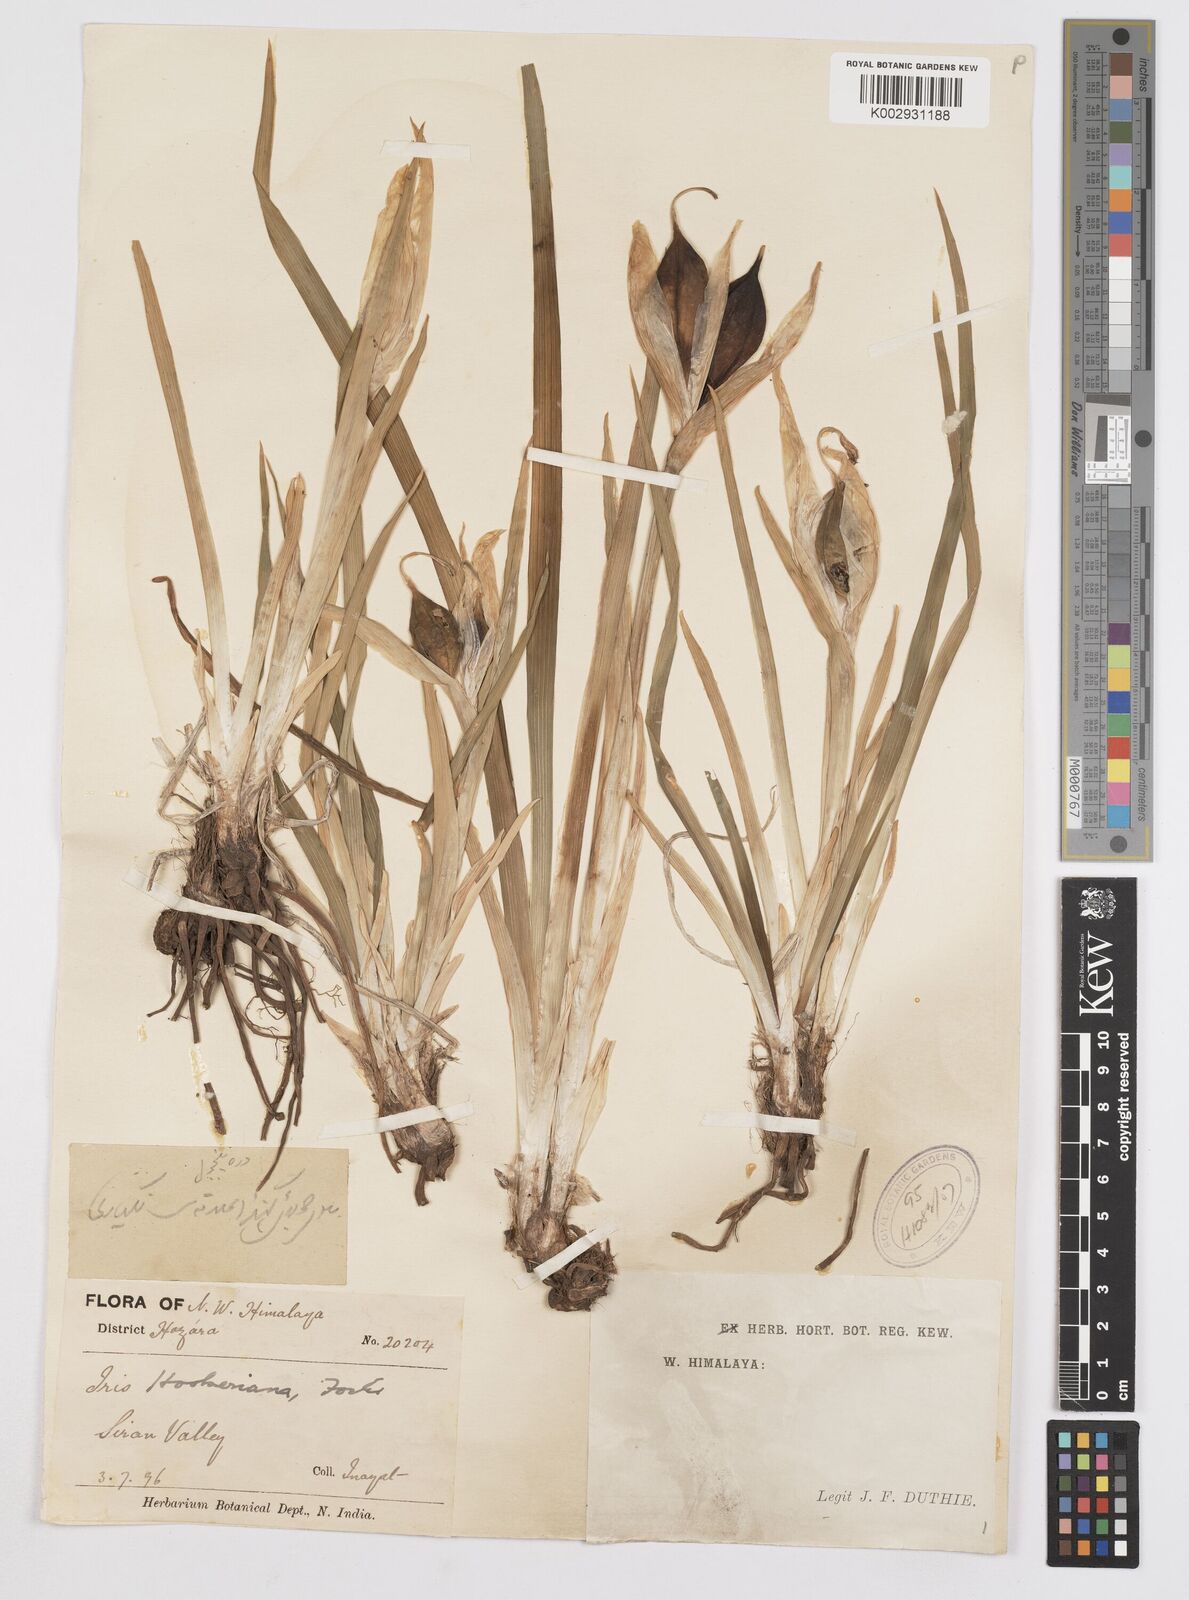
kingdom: Plantae
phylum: Tracheophyta
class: Liliopsida
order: Asparagales
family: Iridaceae
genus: Iris
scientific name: Iris hookeriana
